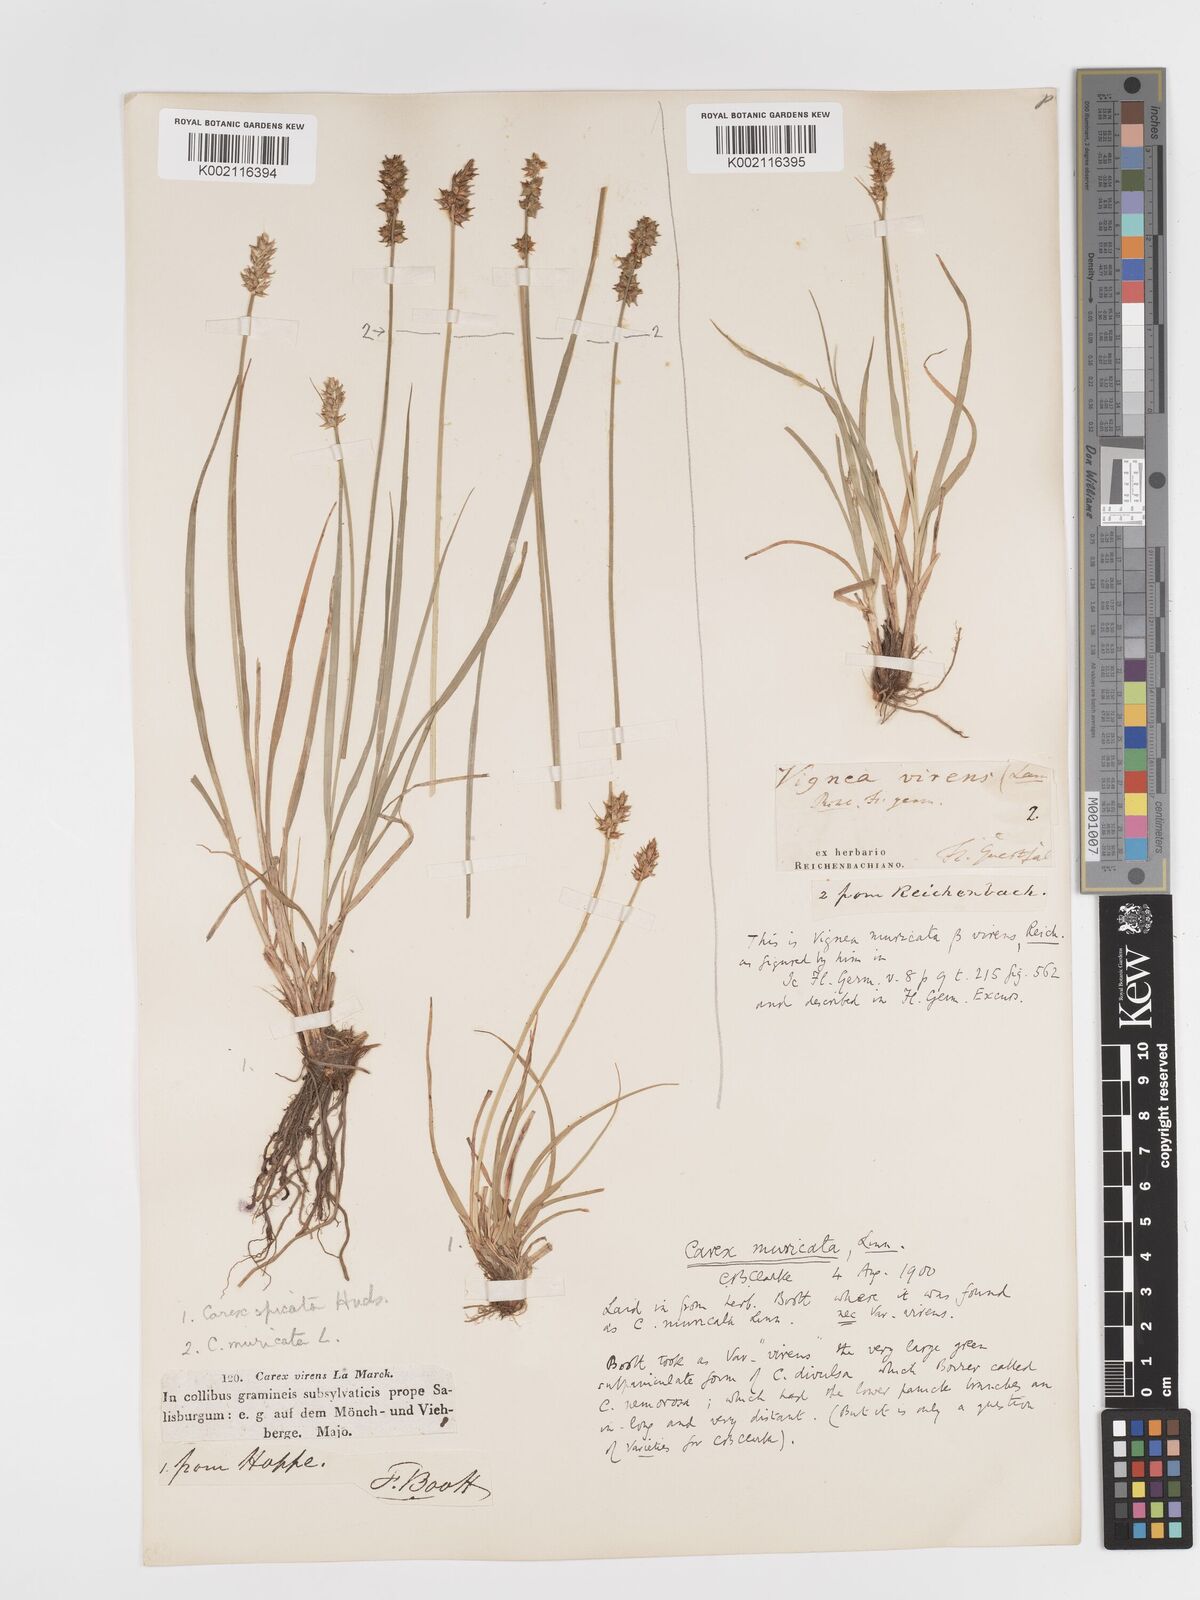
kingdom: Plantae
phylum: Tracheophyta
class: Liliopsida
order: Poales
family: Cyperaceae
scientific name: Cyperaceae
